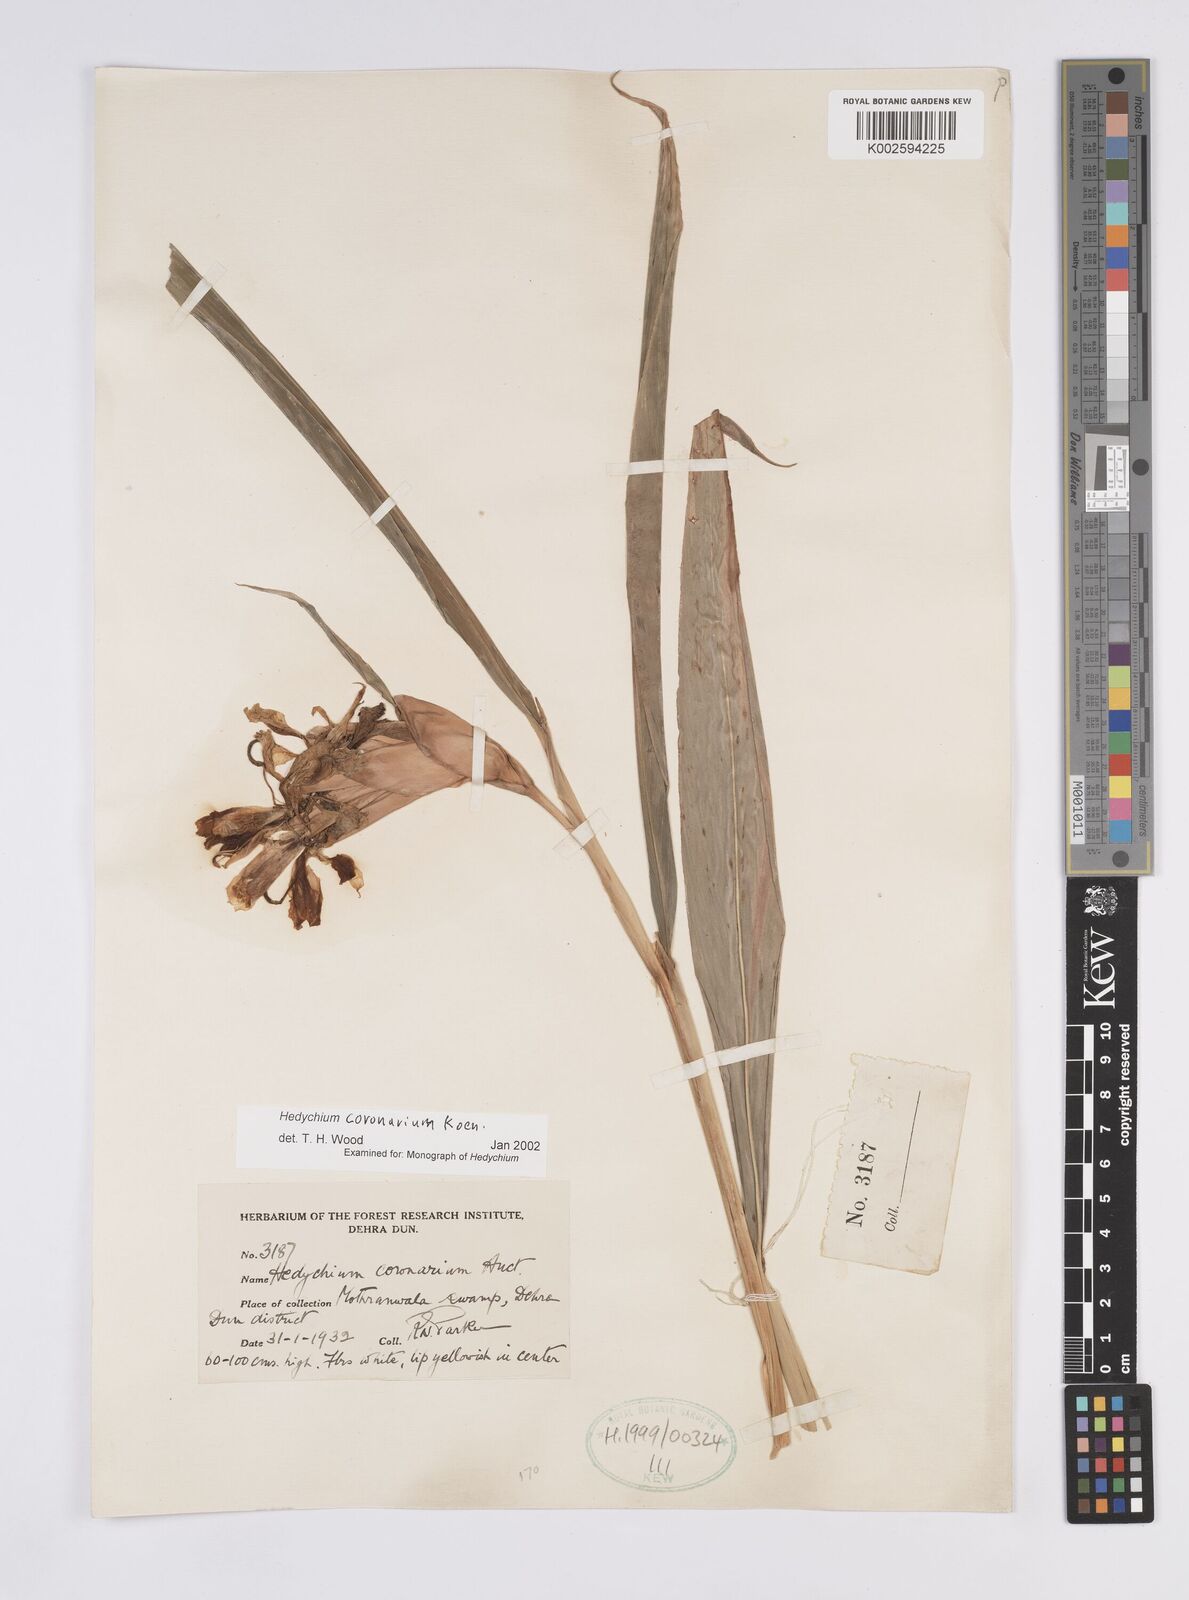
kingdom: Plantae
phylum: Tracheophyta
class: Liliopsida
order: Zingiberales
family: Zingiberaceae
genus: Hedychium
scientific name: Hedychium coronarium
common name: White garland-lily
